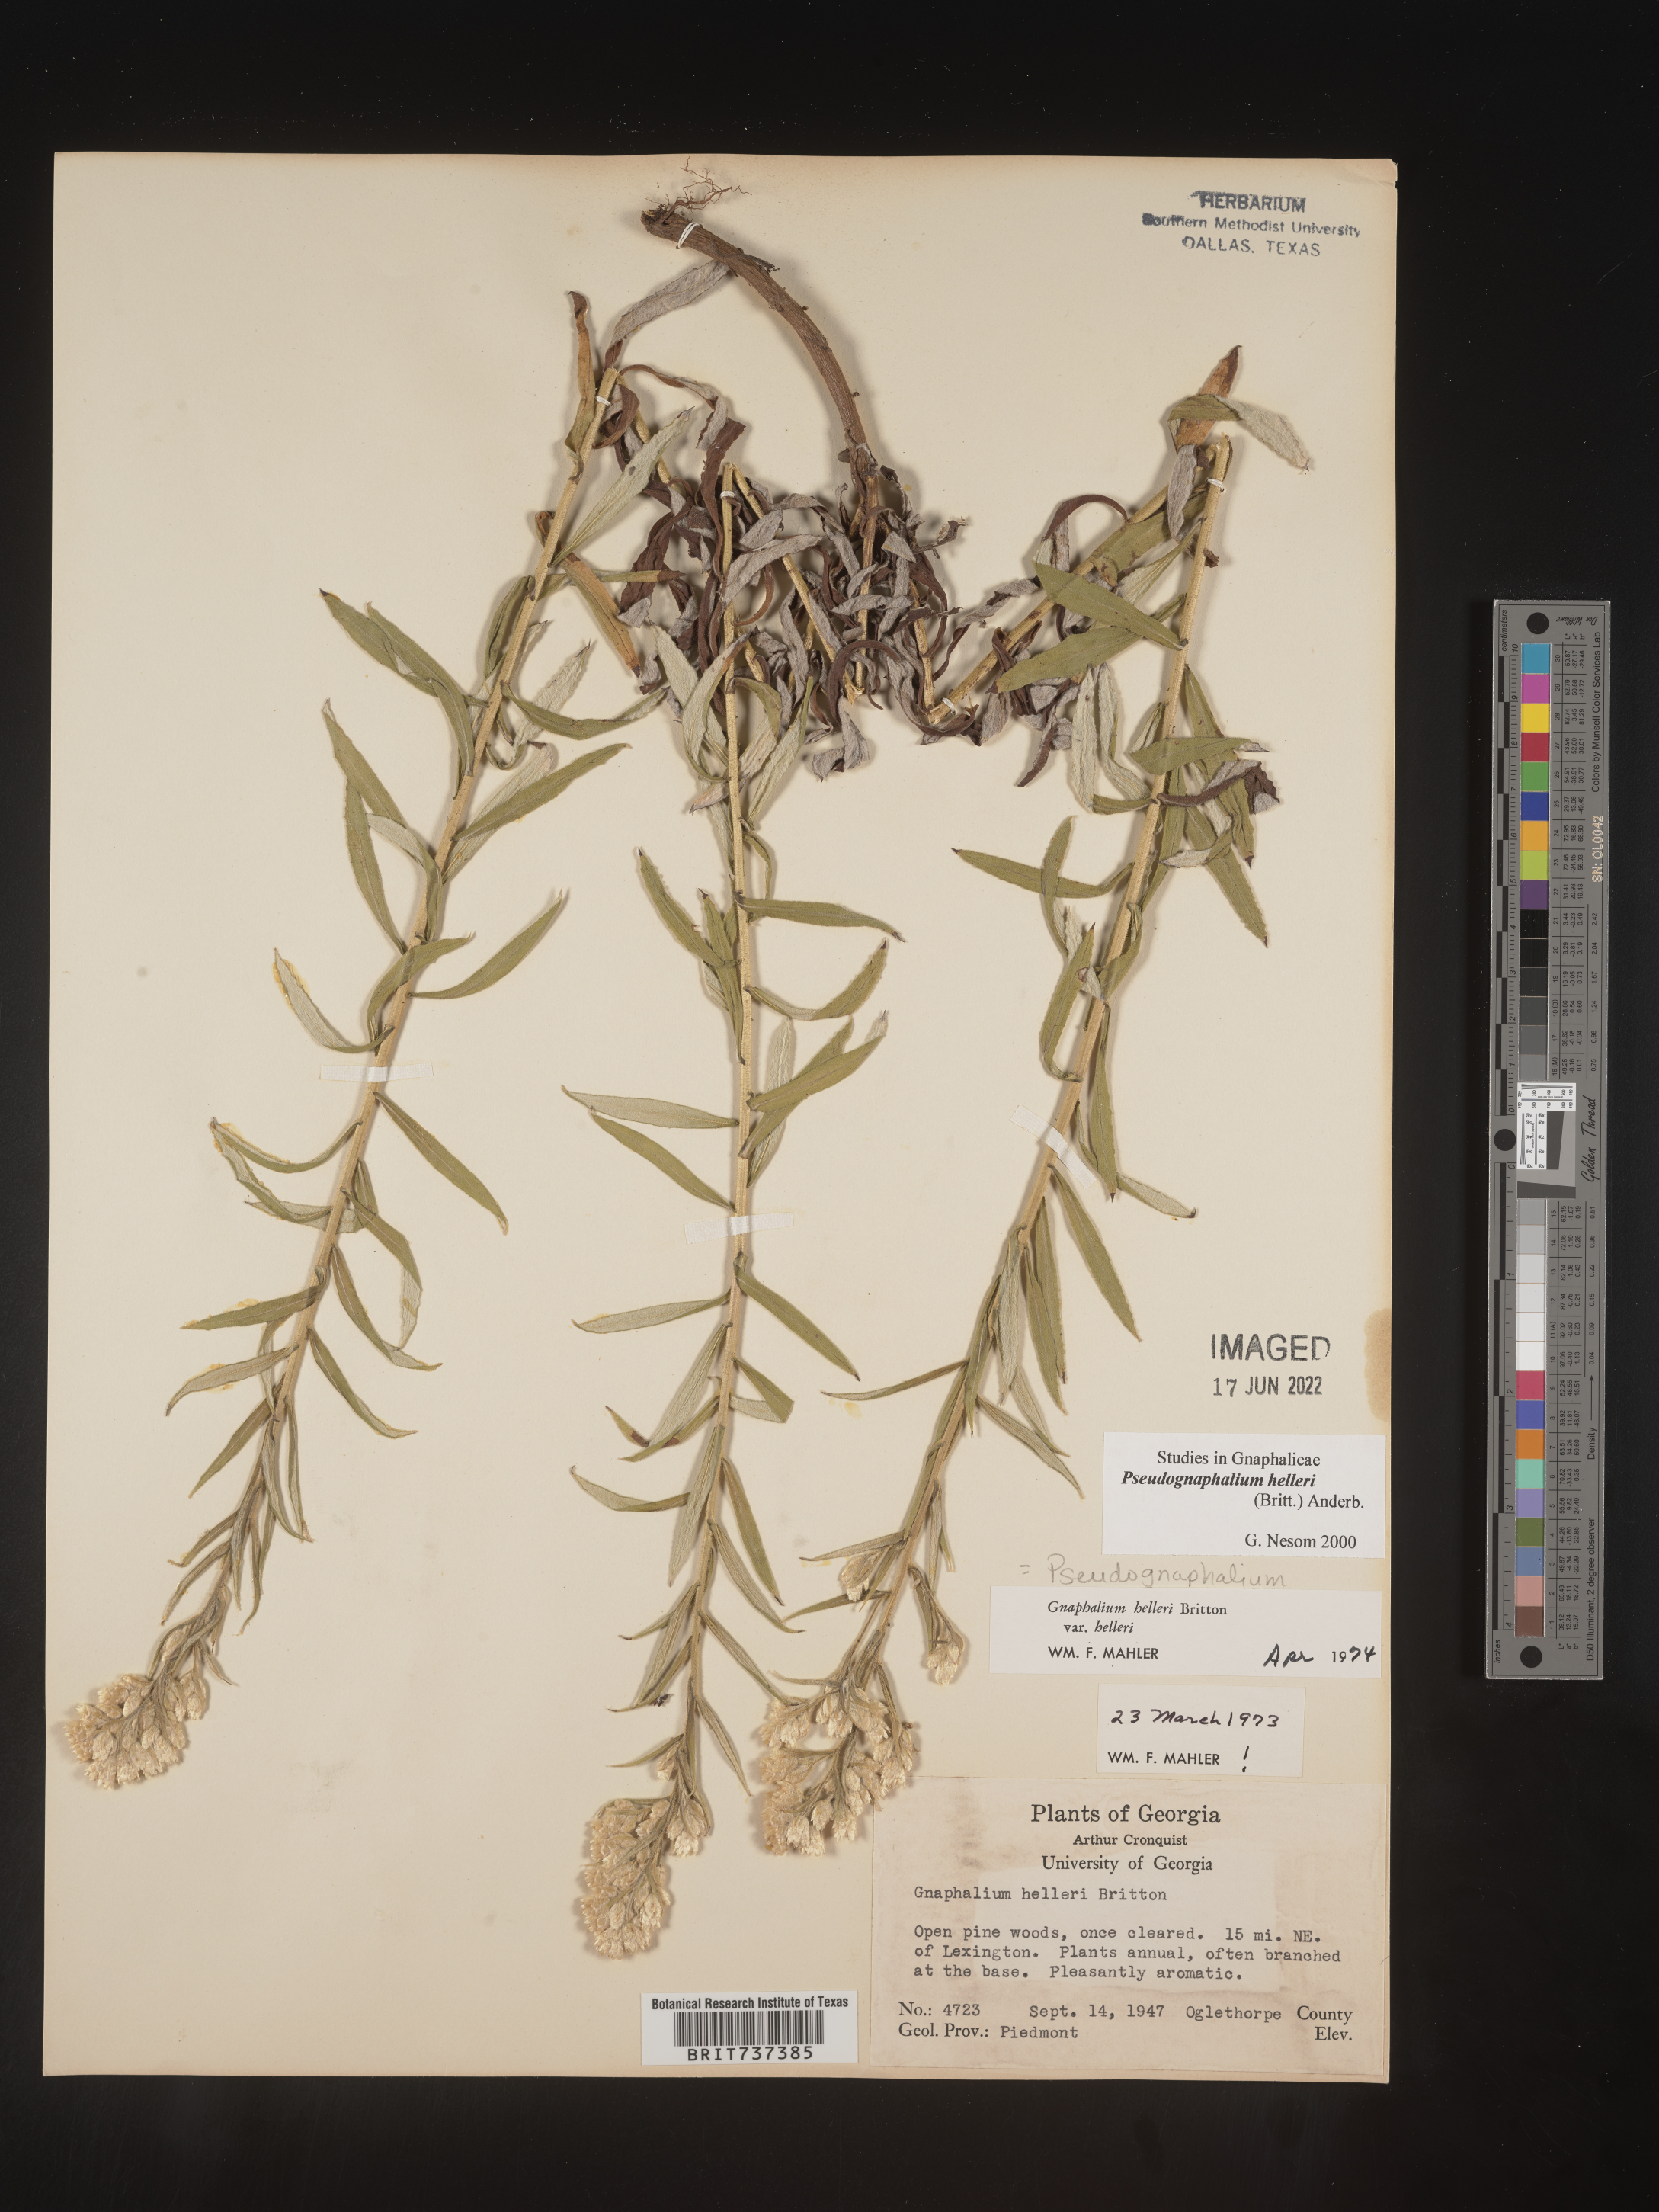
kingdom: Plantae
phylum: Tracheophyta
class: Magnoliopsida
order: Asterales
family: Asteraceae
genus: Pseudognaphalium
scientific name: Pseudognaphalium helleri
